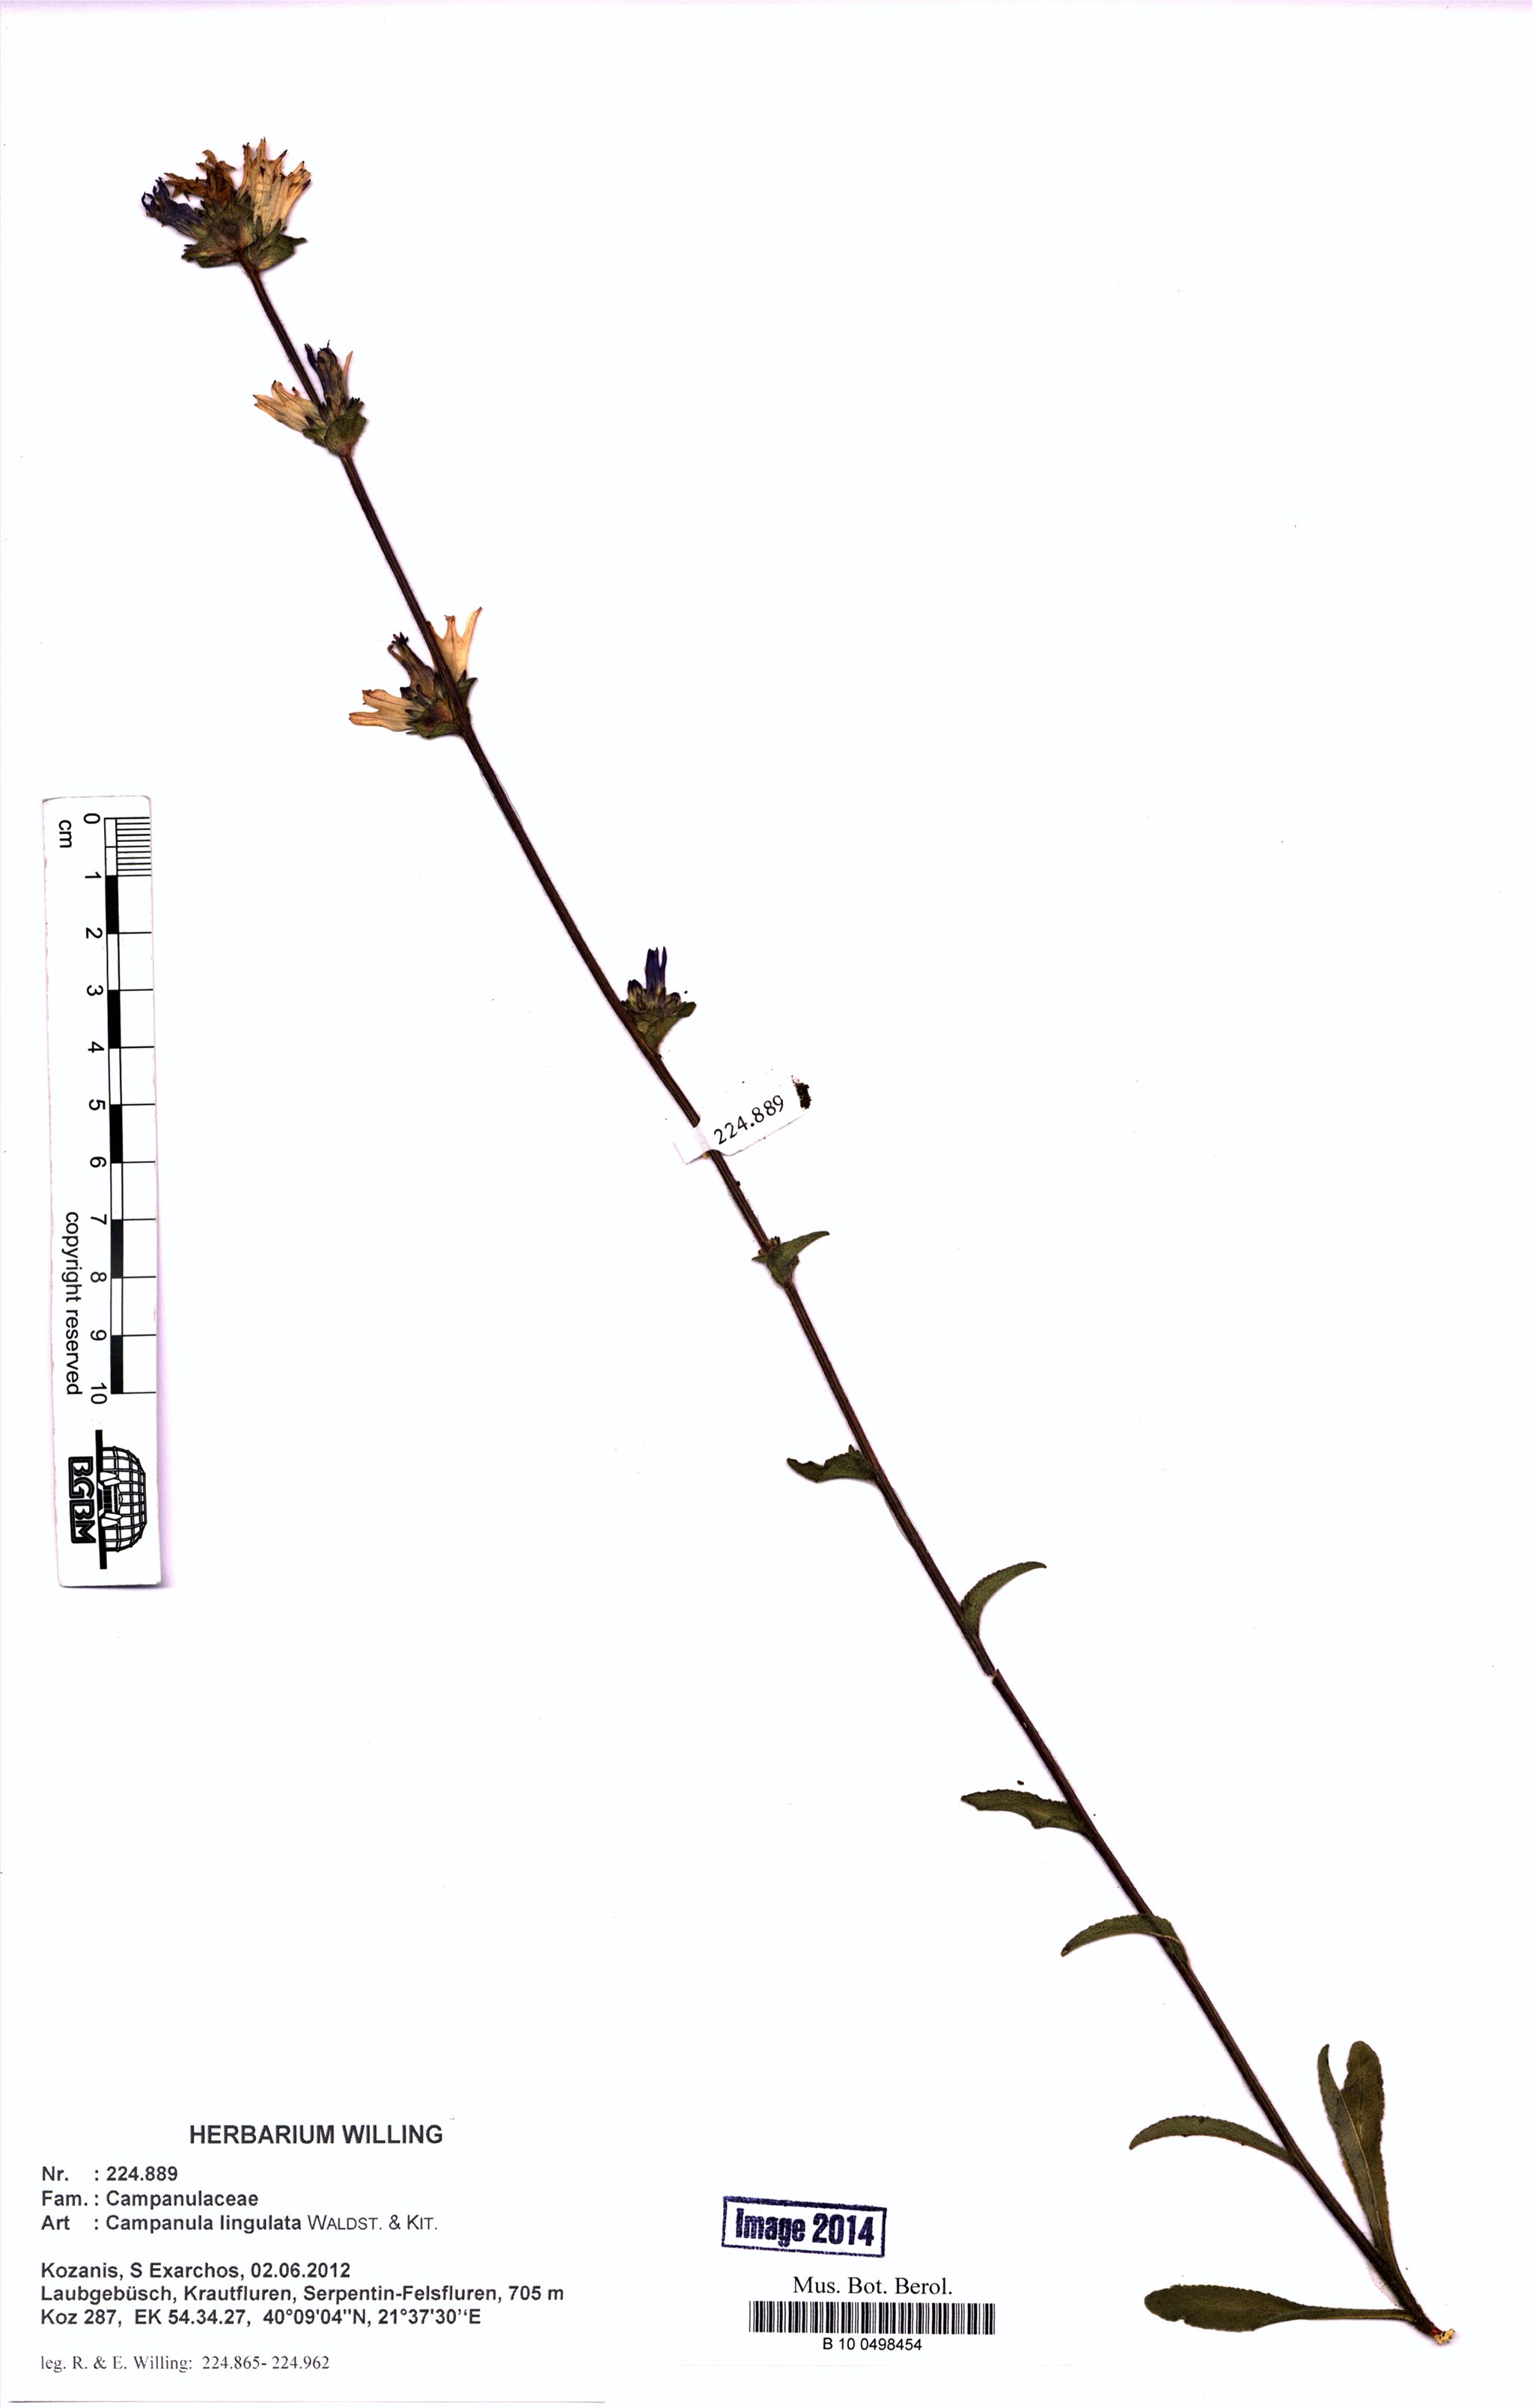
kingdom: Plantae
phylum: Tracheophyta
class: Magnoliopsida
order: Asterales
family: Campanulaceae
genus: Campanula
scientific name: Campanula lingulata
